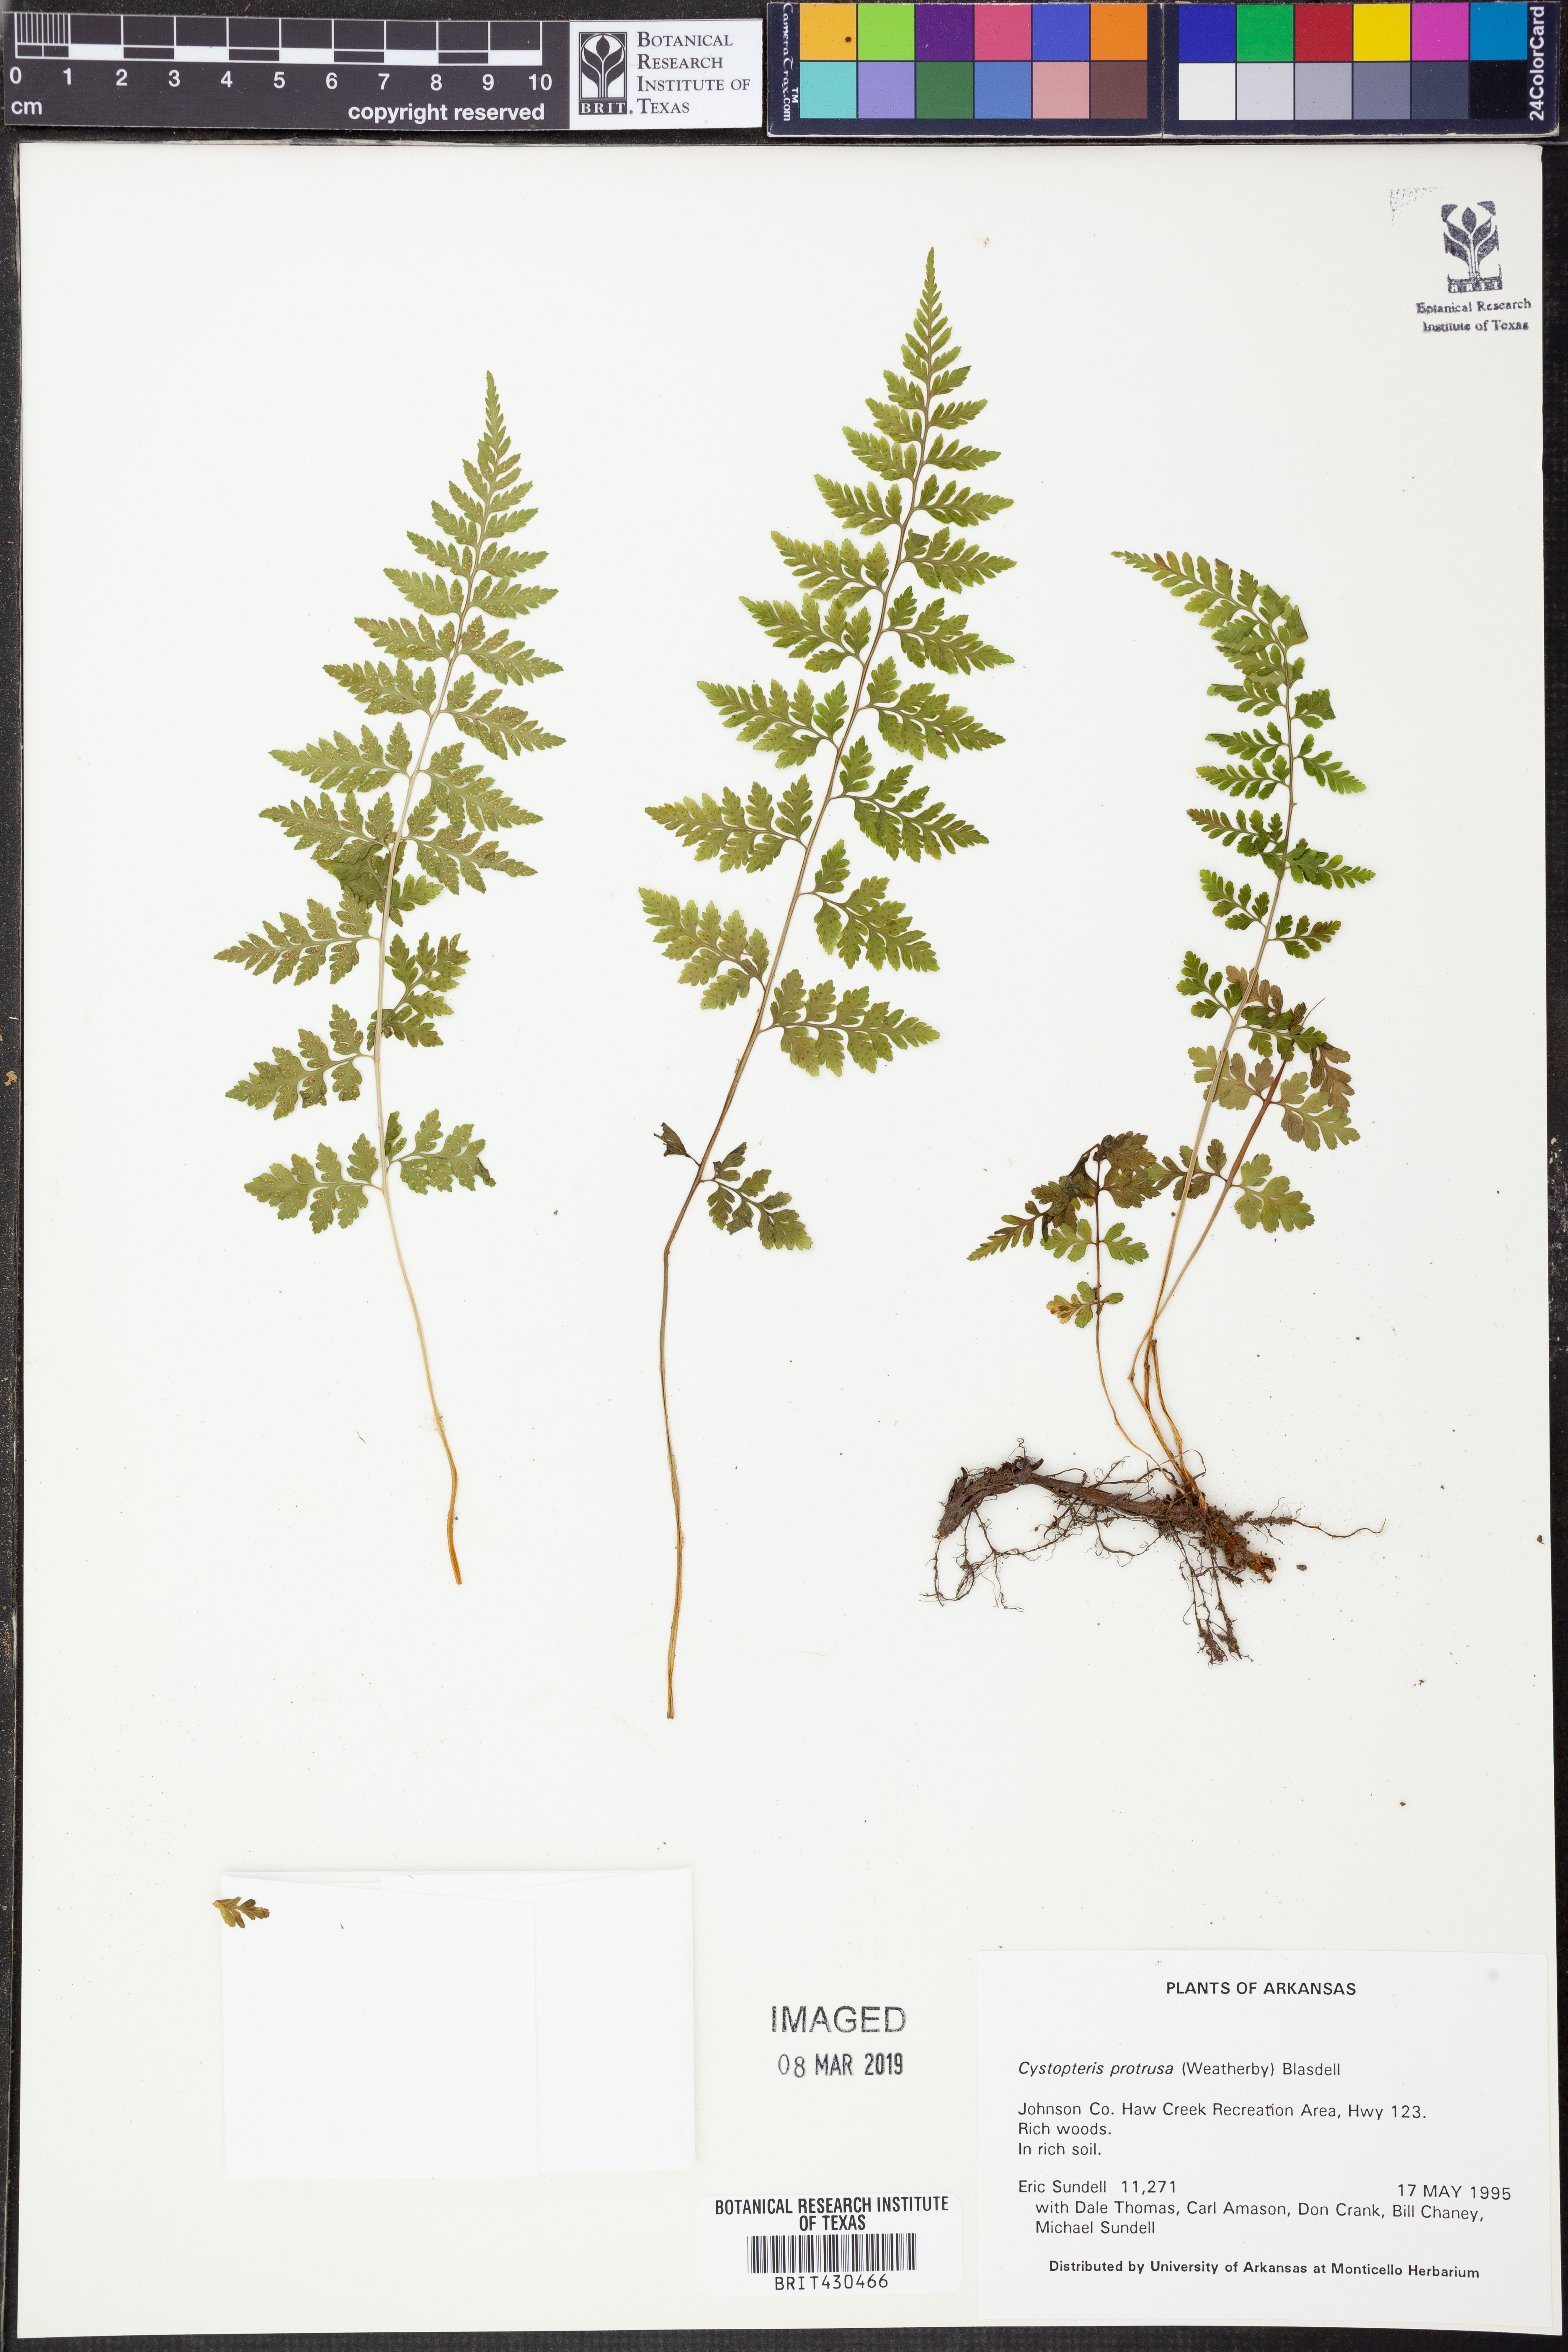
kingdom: Plantae
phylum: Tracheophyta
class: Polypodiopsida
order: Polypodiales
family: Cystopteridaceae
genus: Cystopteris
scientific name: Cystopteris protrusa
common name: Lowland brittle fern
